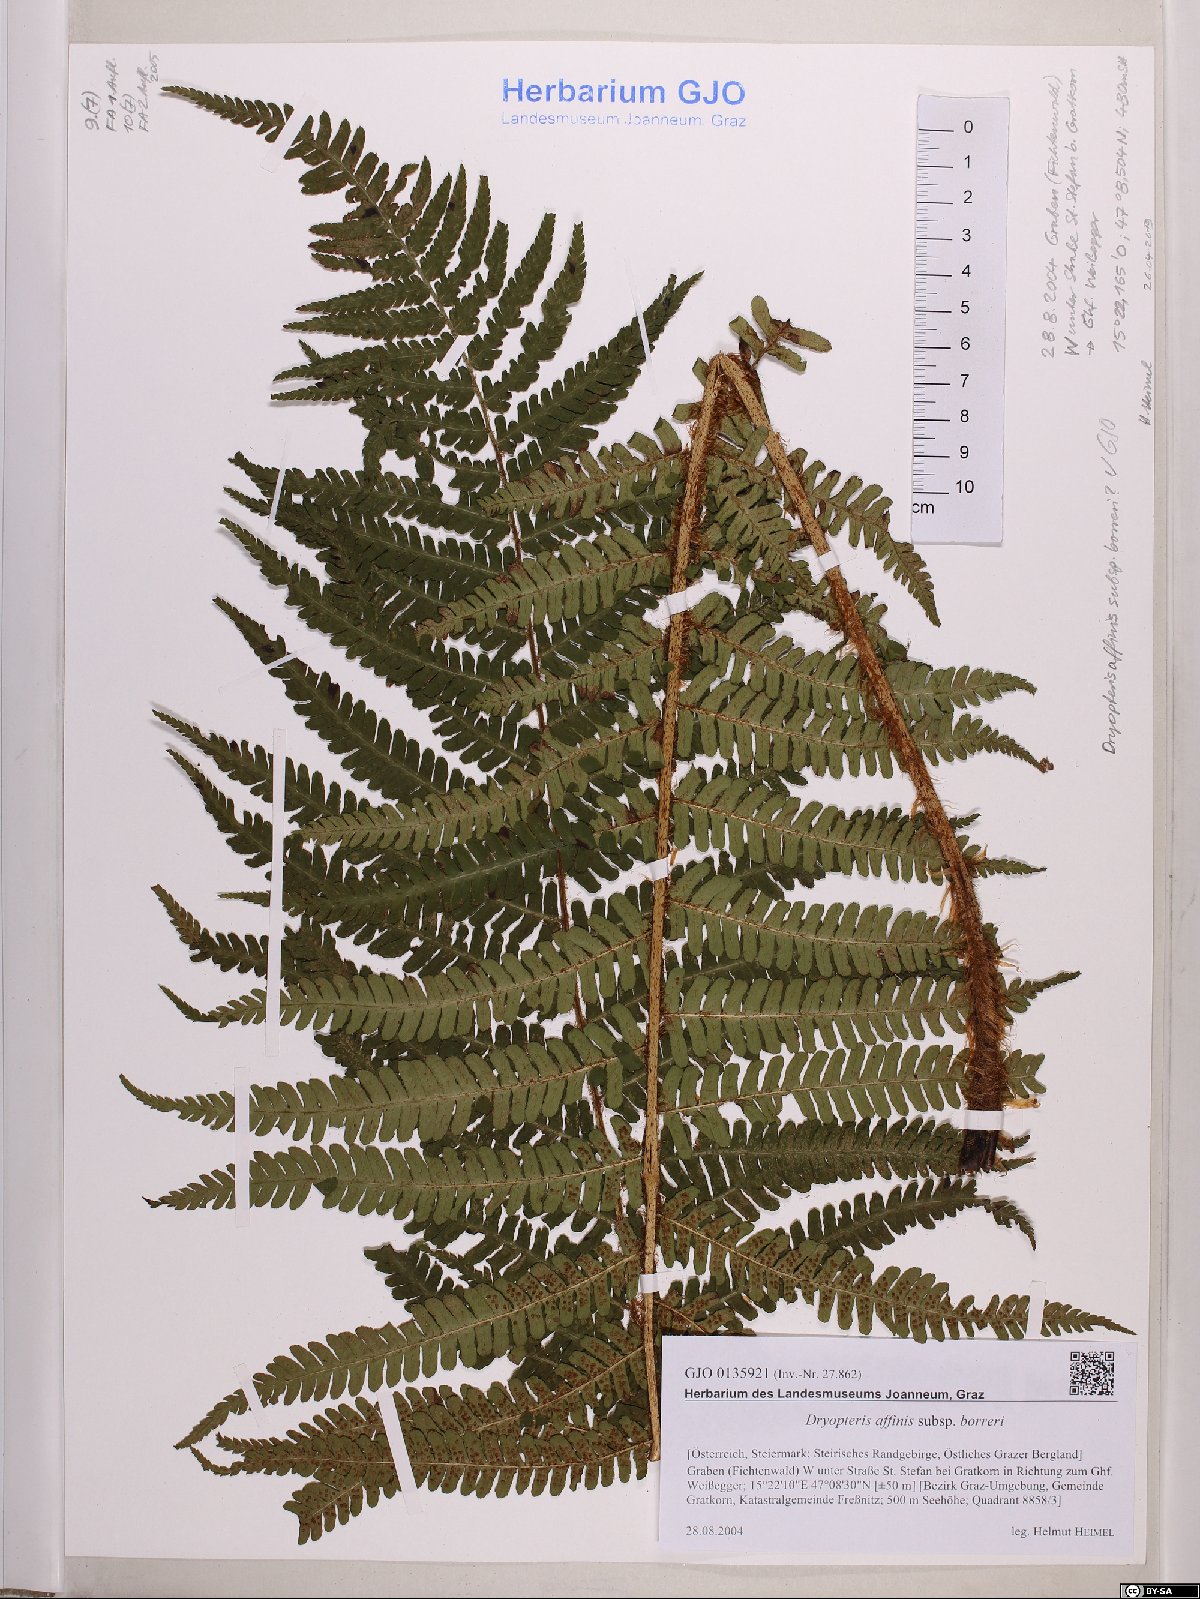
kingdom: Plantae
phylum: Tracheophyta
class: Polypodiopsida
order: Polypodiales
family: Dryopteridaceae
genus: Dryopteris
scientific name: Dryopteris borreri
